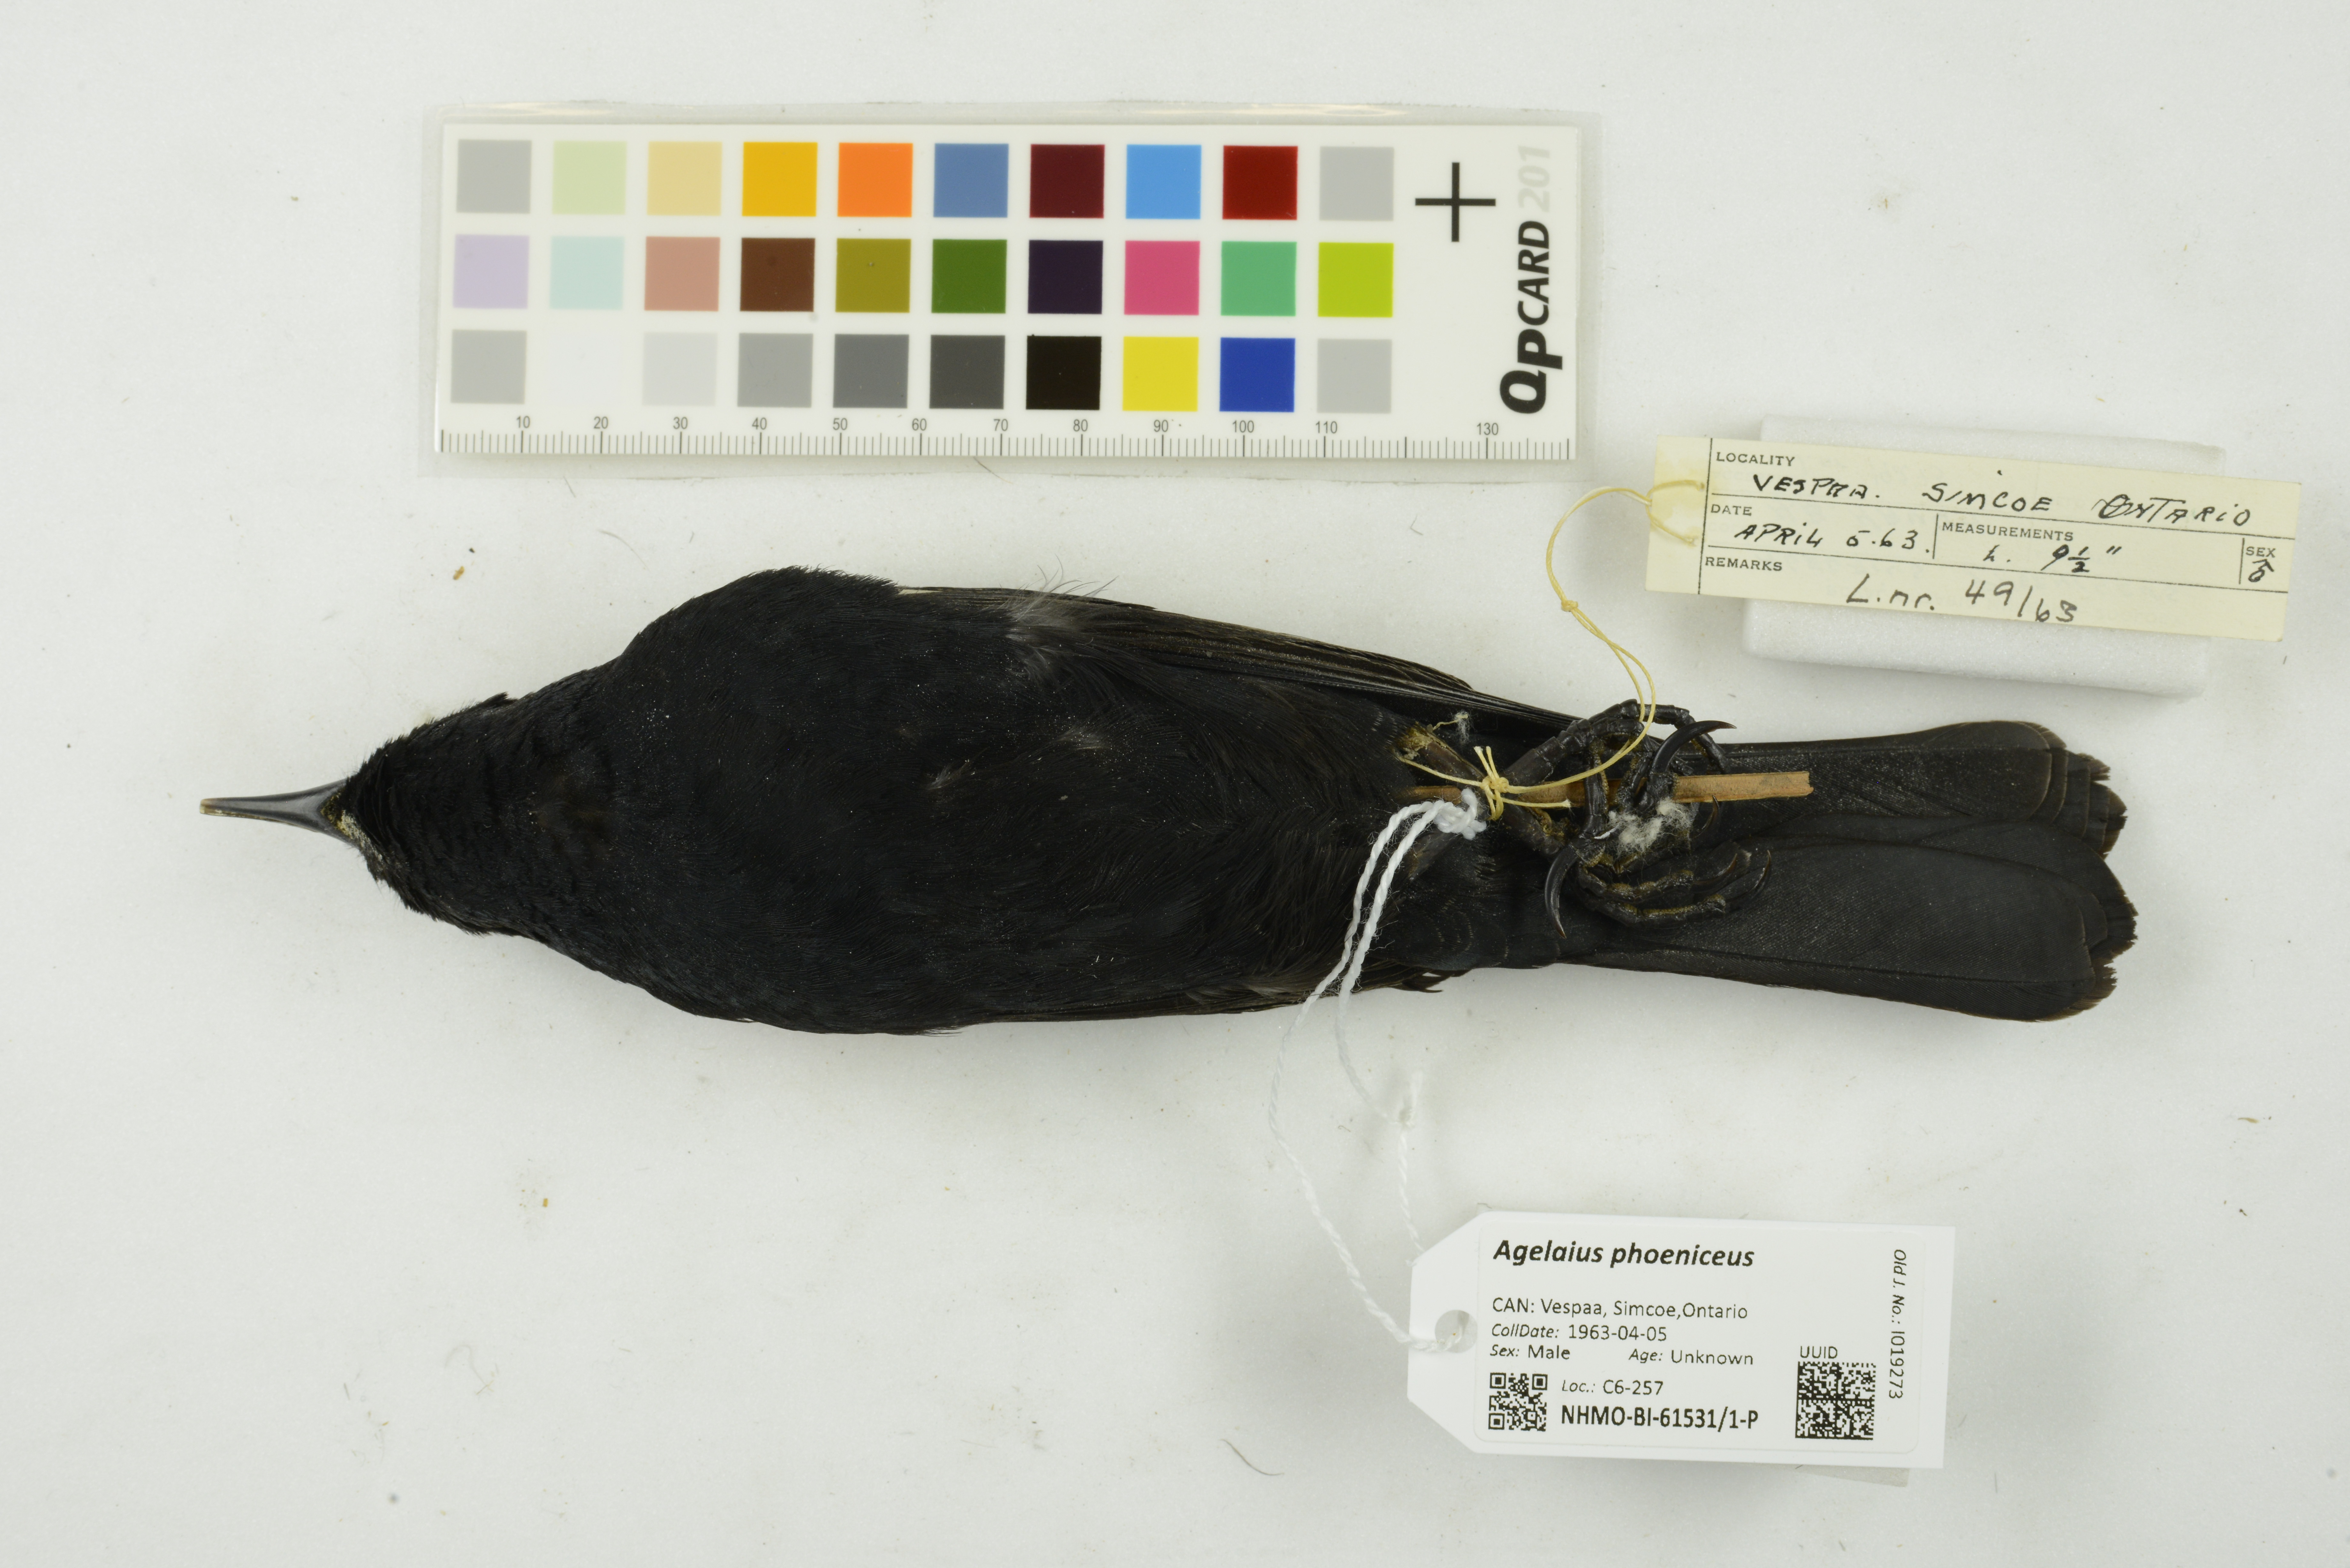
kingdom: Animalia
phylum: Chordata
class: Aves
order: Passeriformes
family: Icteridae
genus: Agelaius
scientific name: Agelaius phoeniceus
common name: Red-winged blackbird
